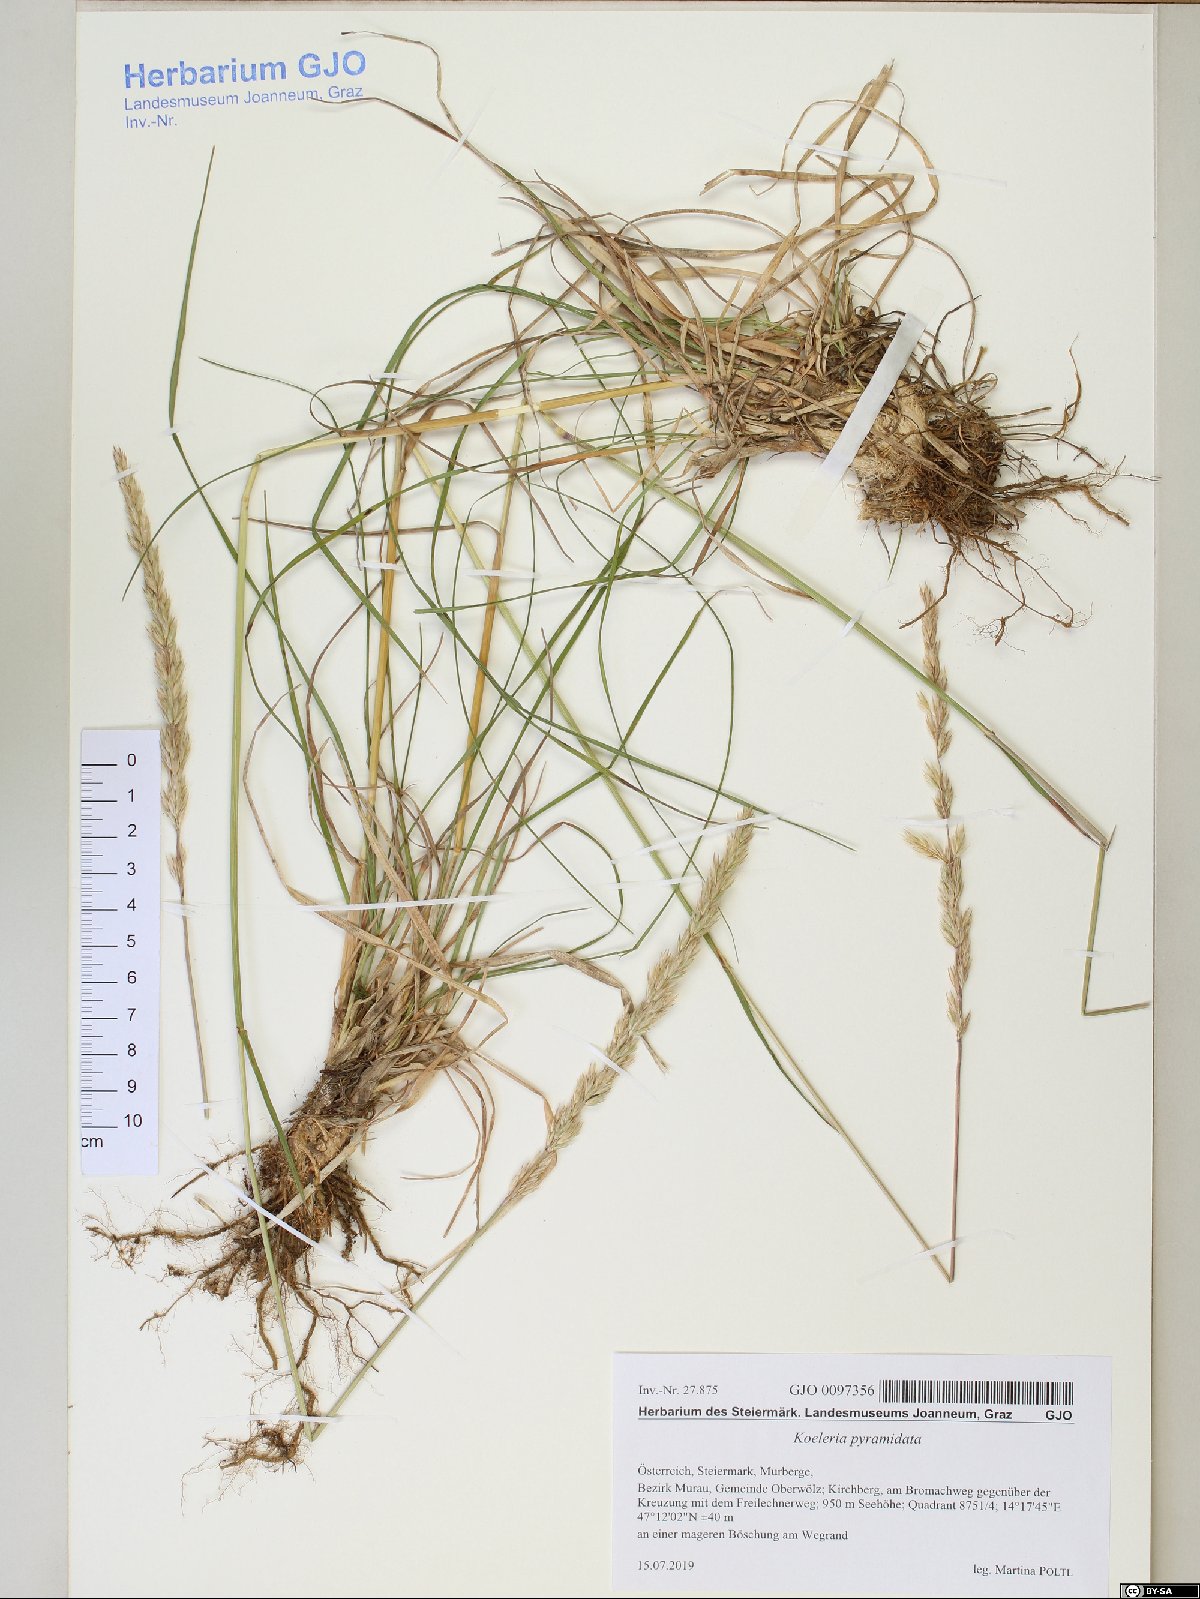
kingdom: Plantae
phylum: Tracheophyta
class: Liliopsida
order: Poales
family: Poaceae
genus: Koeleria
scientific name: Koeleria pyramidata
